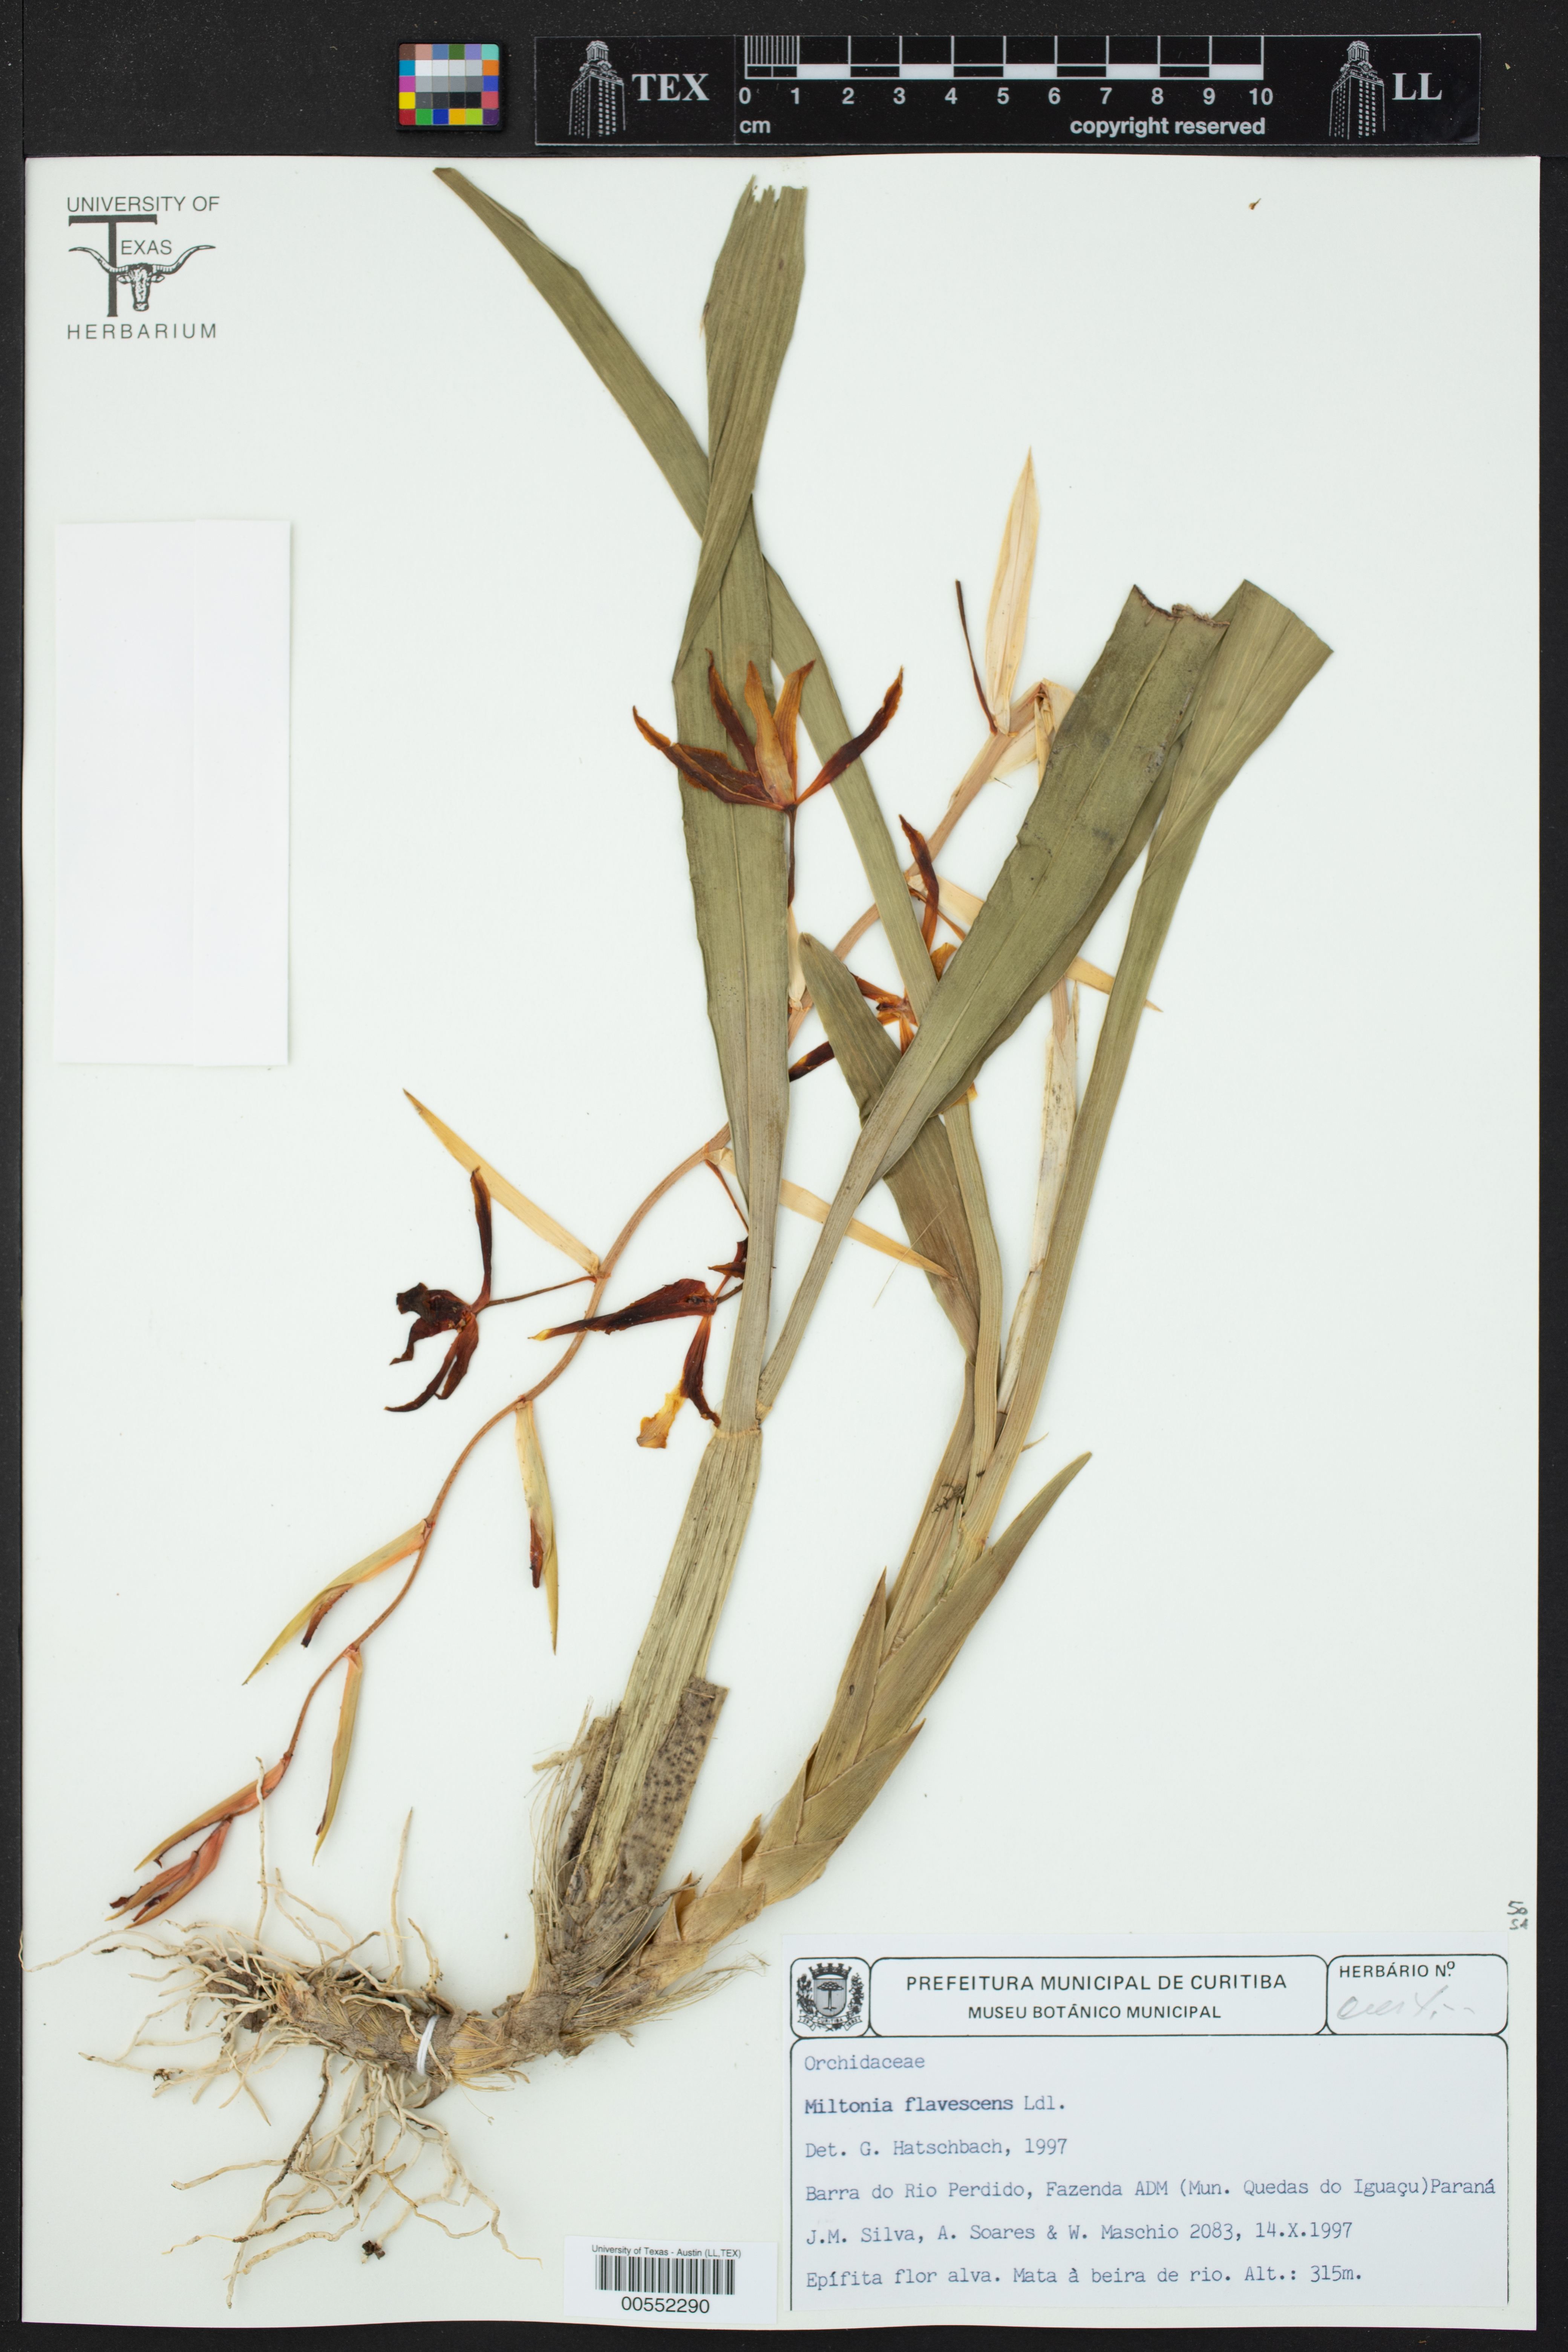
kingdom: Plantae
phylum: Tracheophyta
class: Liliopsida
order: Asparagales
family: Orchidaceae
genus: Miltonia
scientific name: Miltonia flavescens
